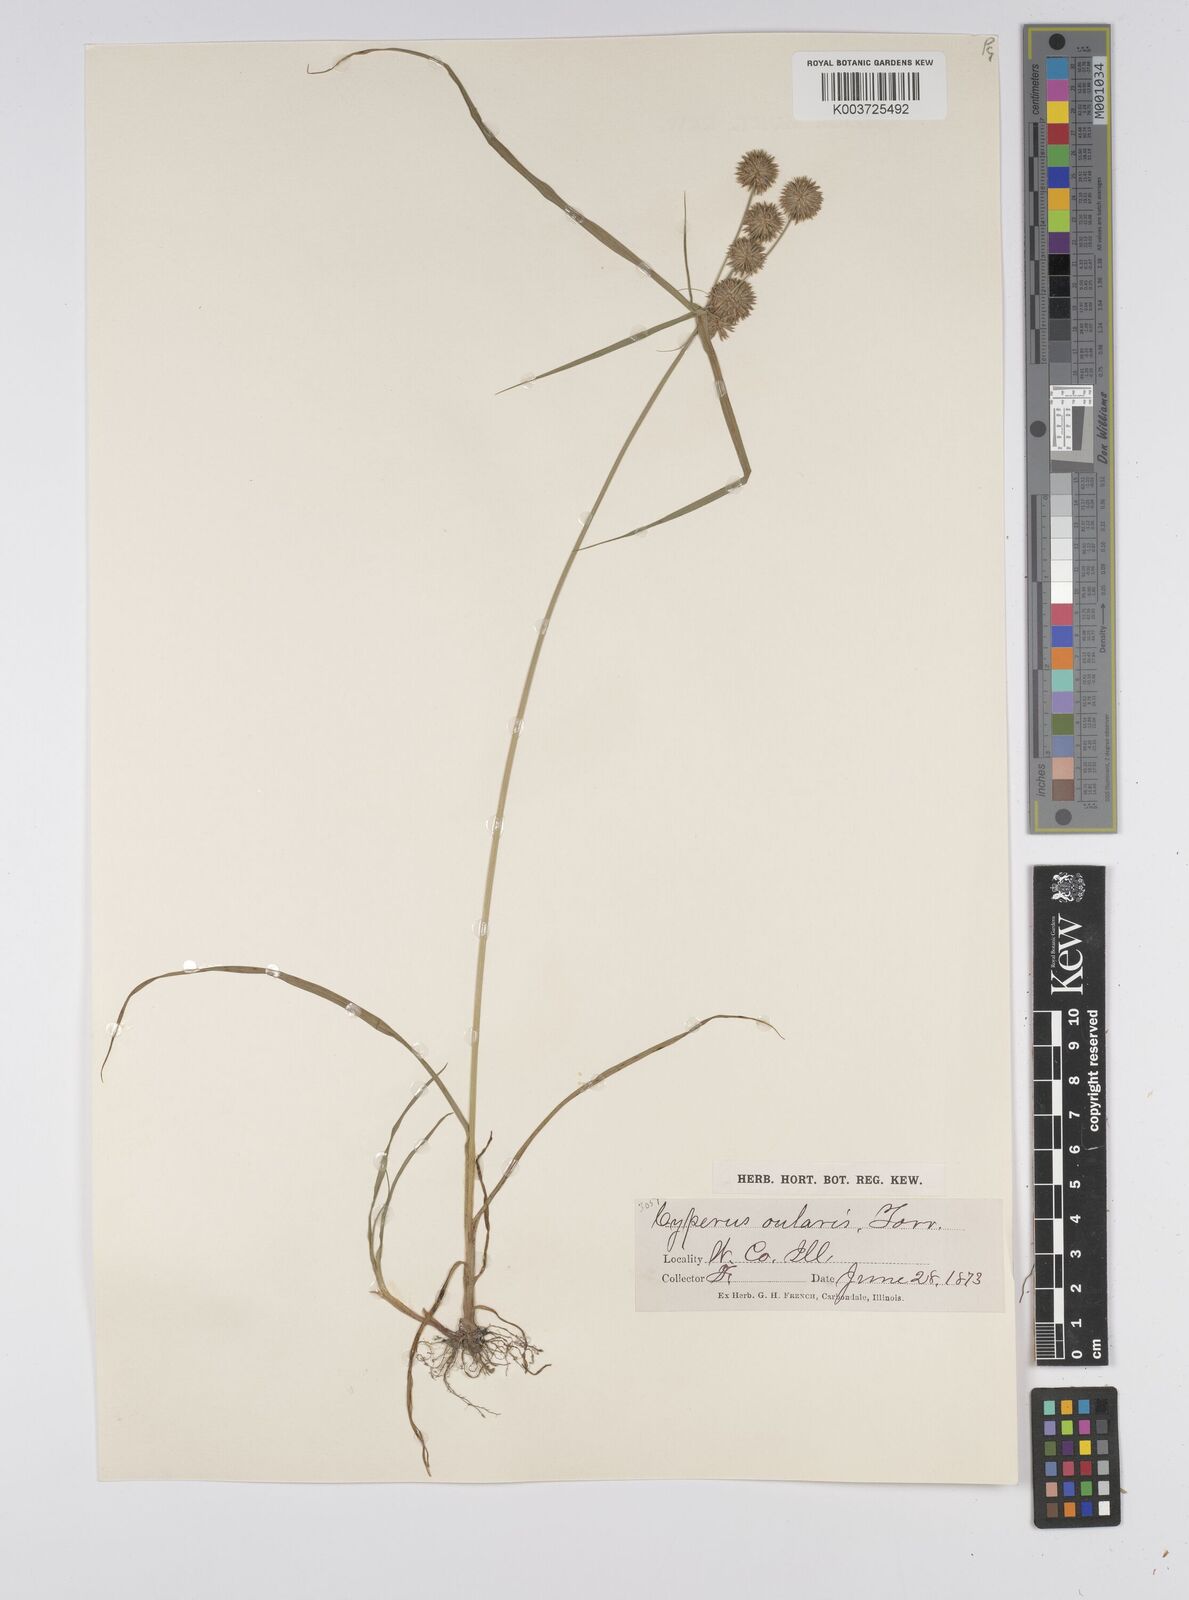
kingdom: Plantae
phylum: Tracheophyta
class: Liliopsida
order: Poales
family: Cyperaceae
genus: Cyperus
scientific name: Cyperus echinatus
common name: Teasel sedge
